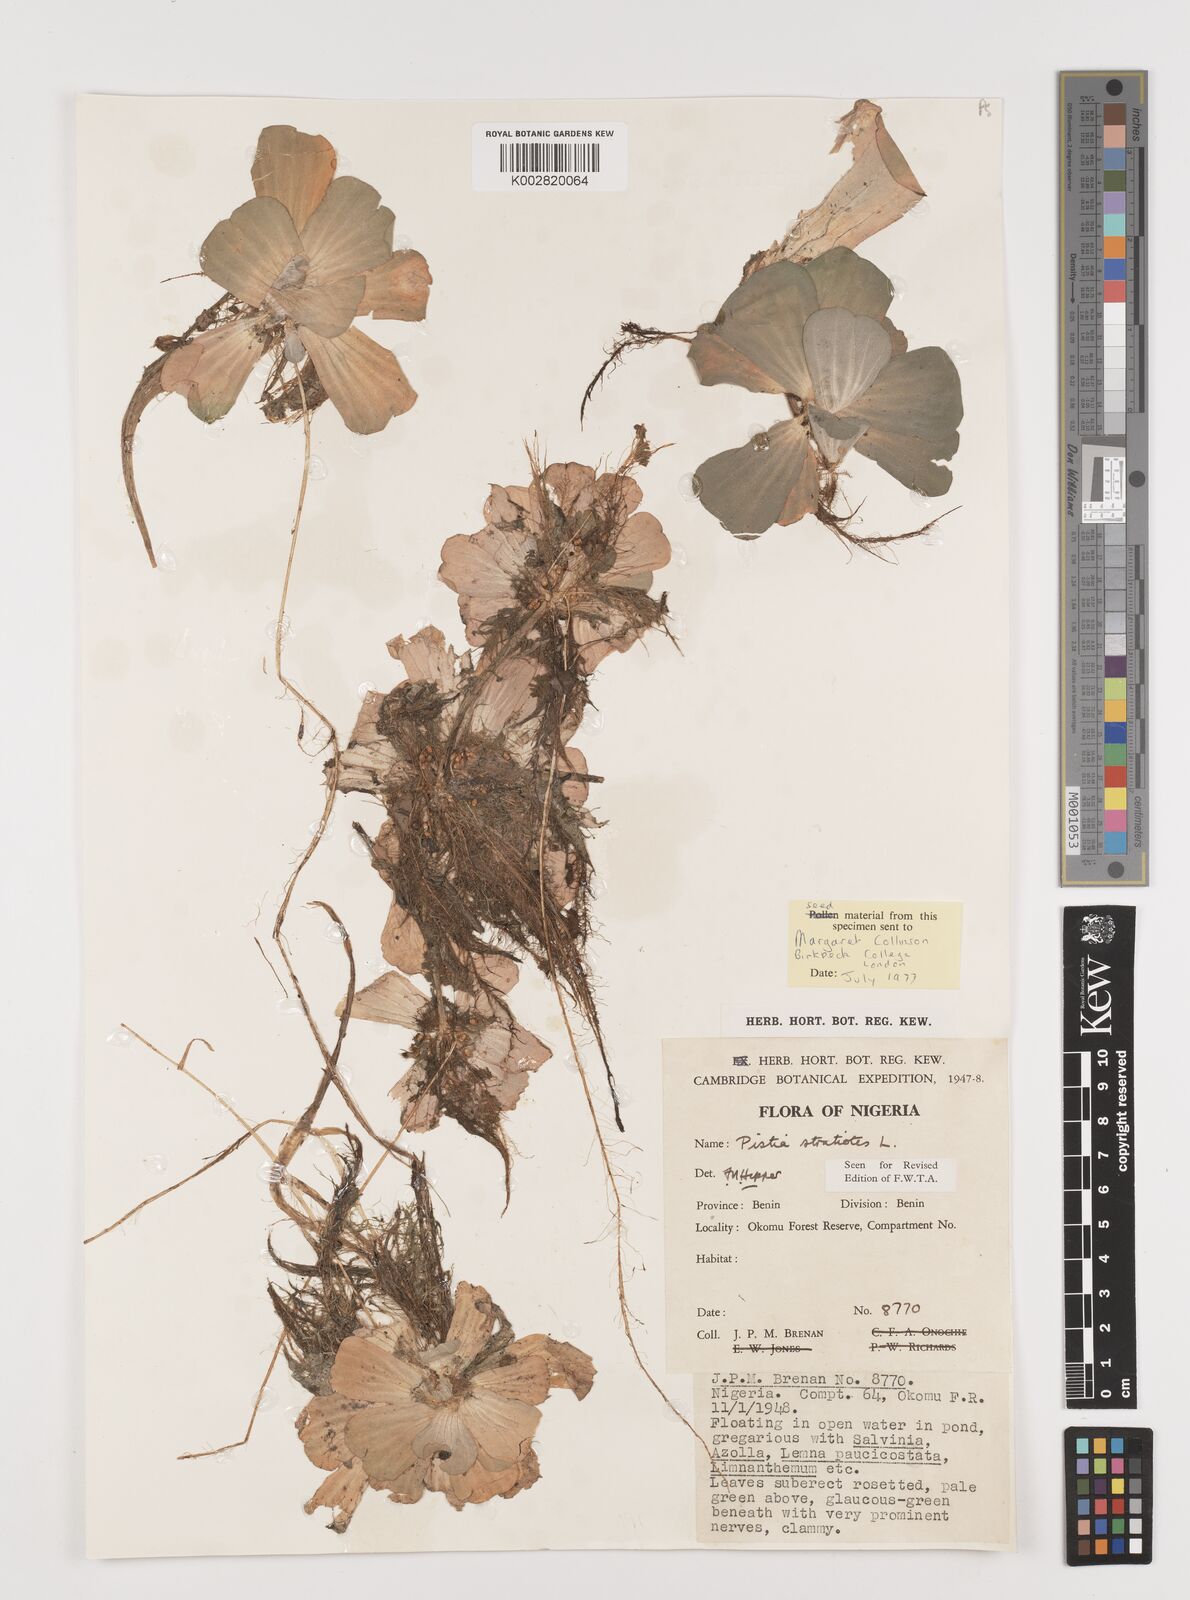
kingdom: Plantae
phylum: Tracheophyta
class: Liliopsida
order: Alismatales
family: Araceae
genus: Pistia
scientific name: Pistia stratiotes
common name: Water lettuce
